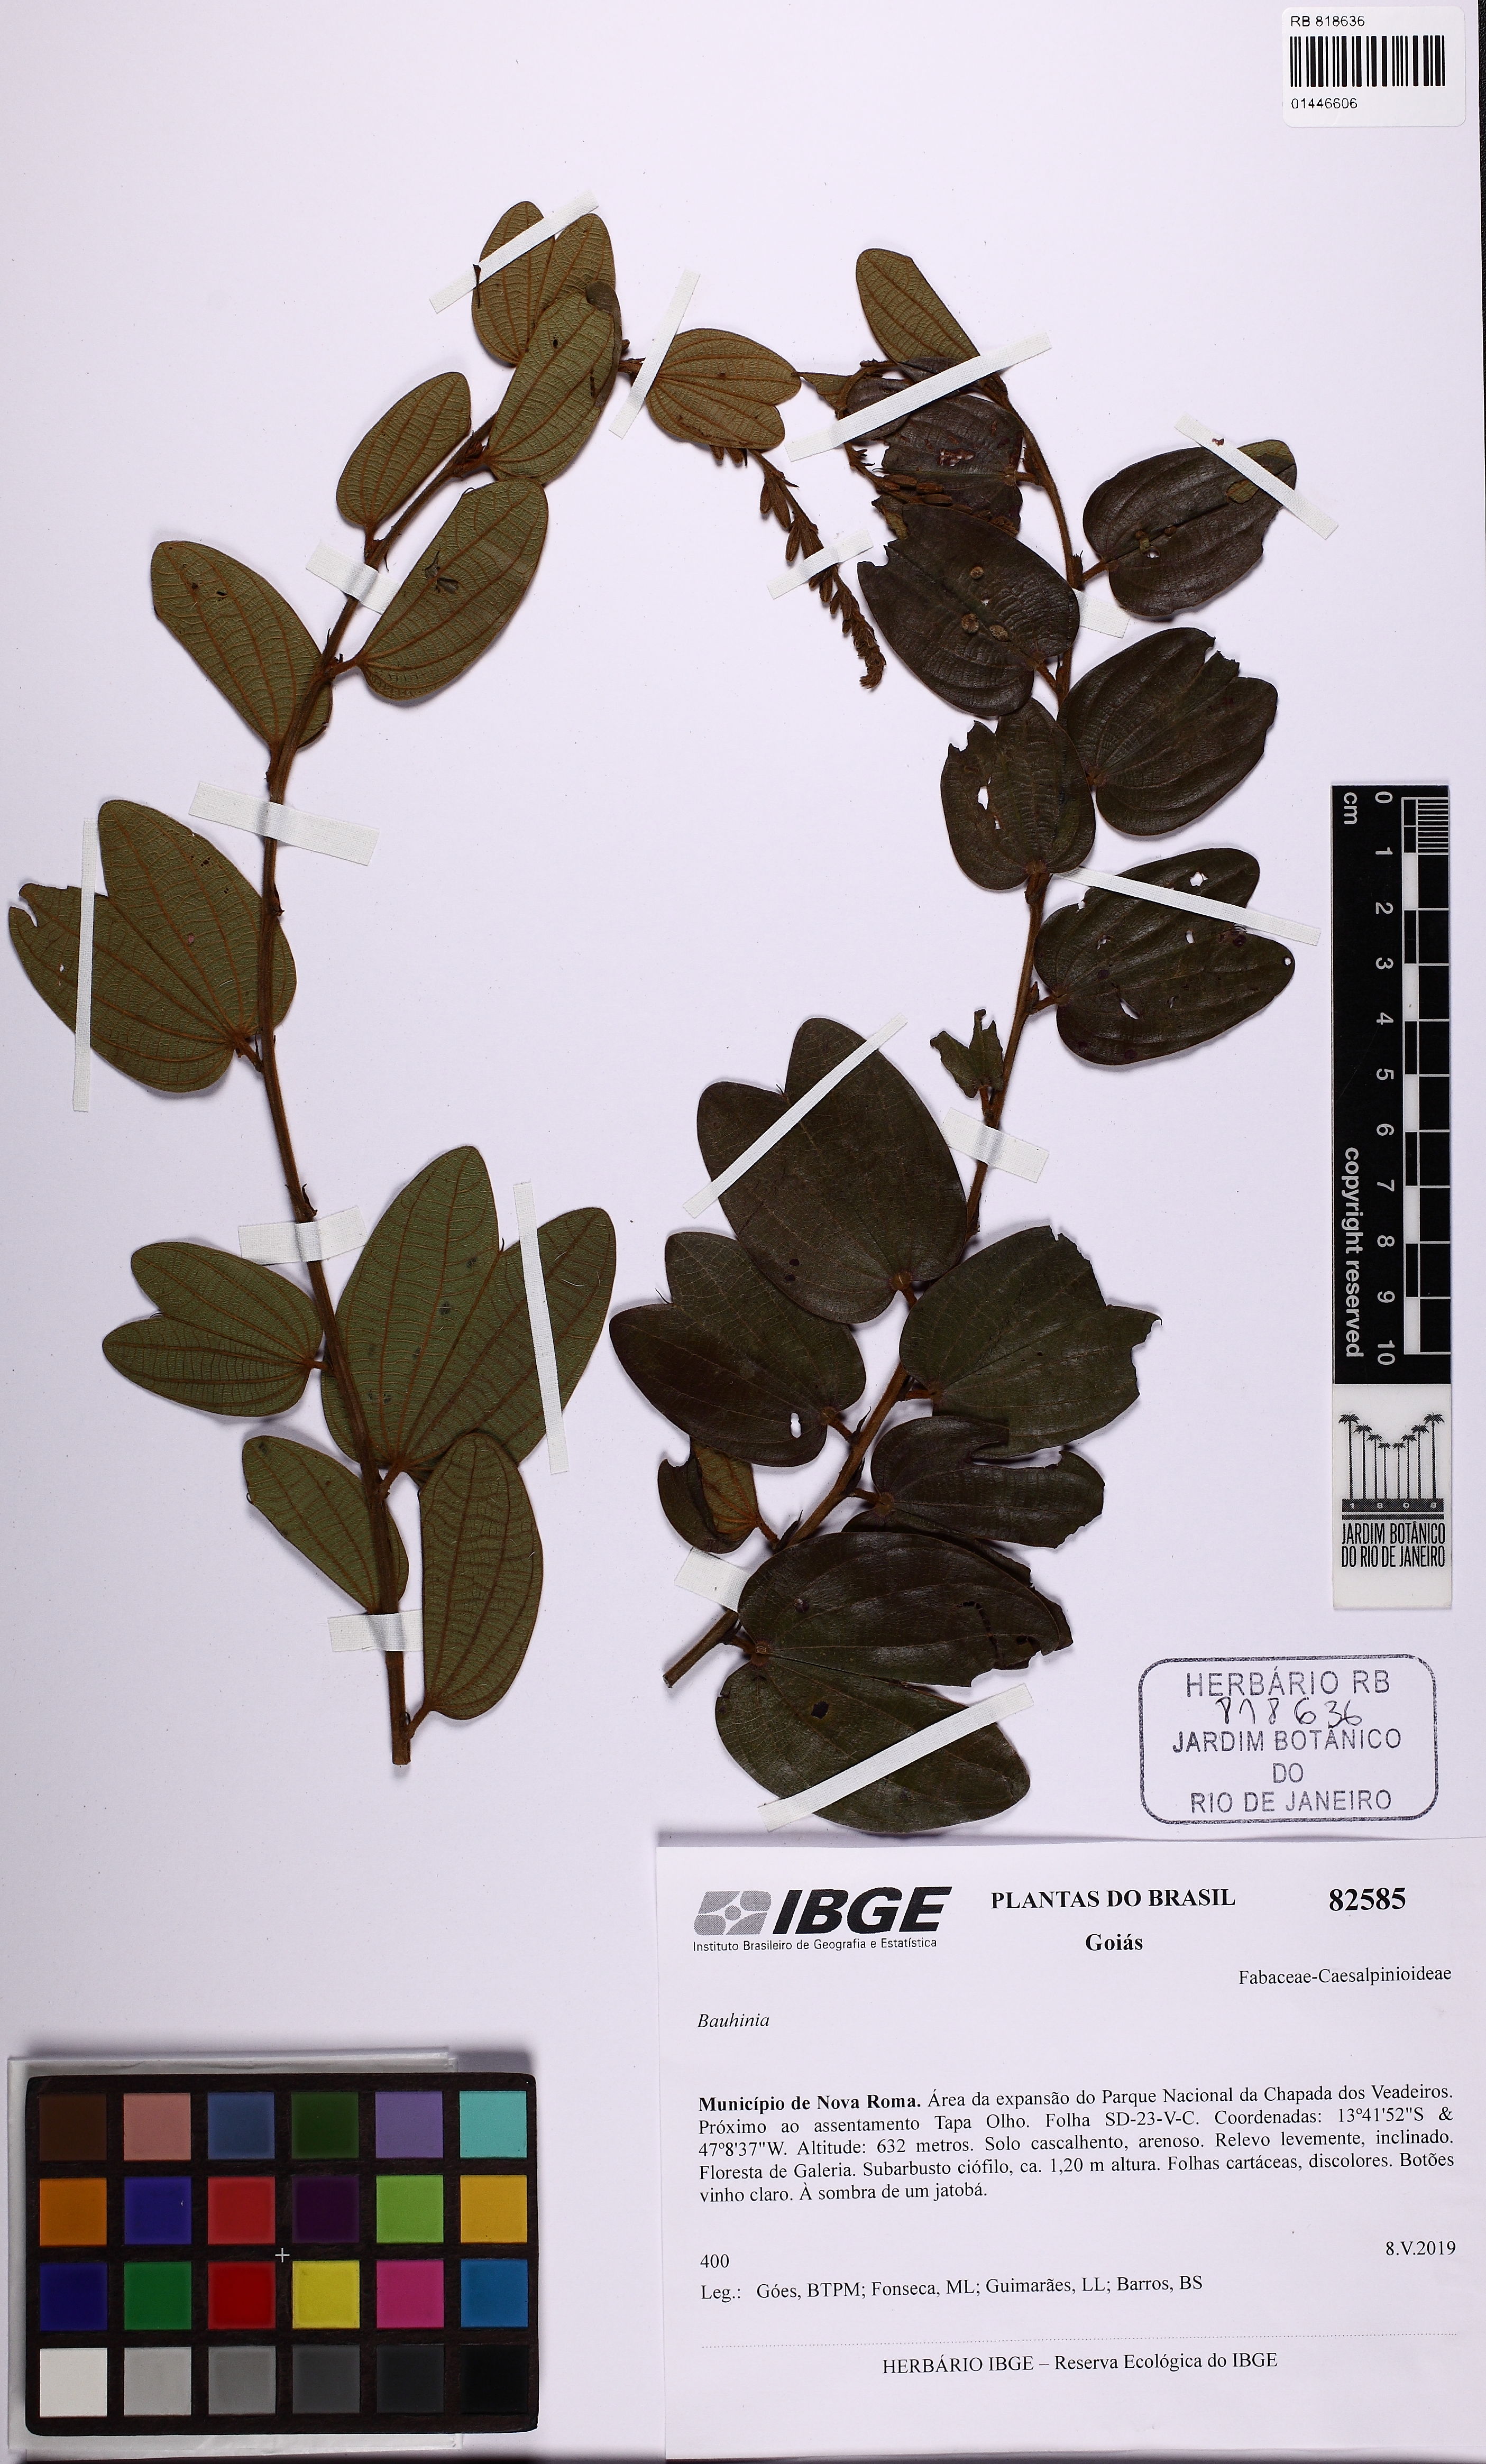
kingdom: Plantae
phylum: Tracheophyta
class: Magnoliopsida
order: Fabales
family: Fabaceae
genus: Bauhinia
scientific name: Bauhinia
